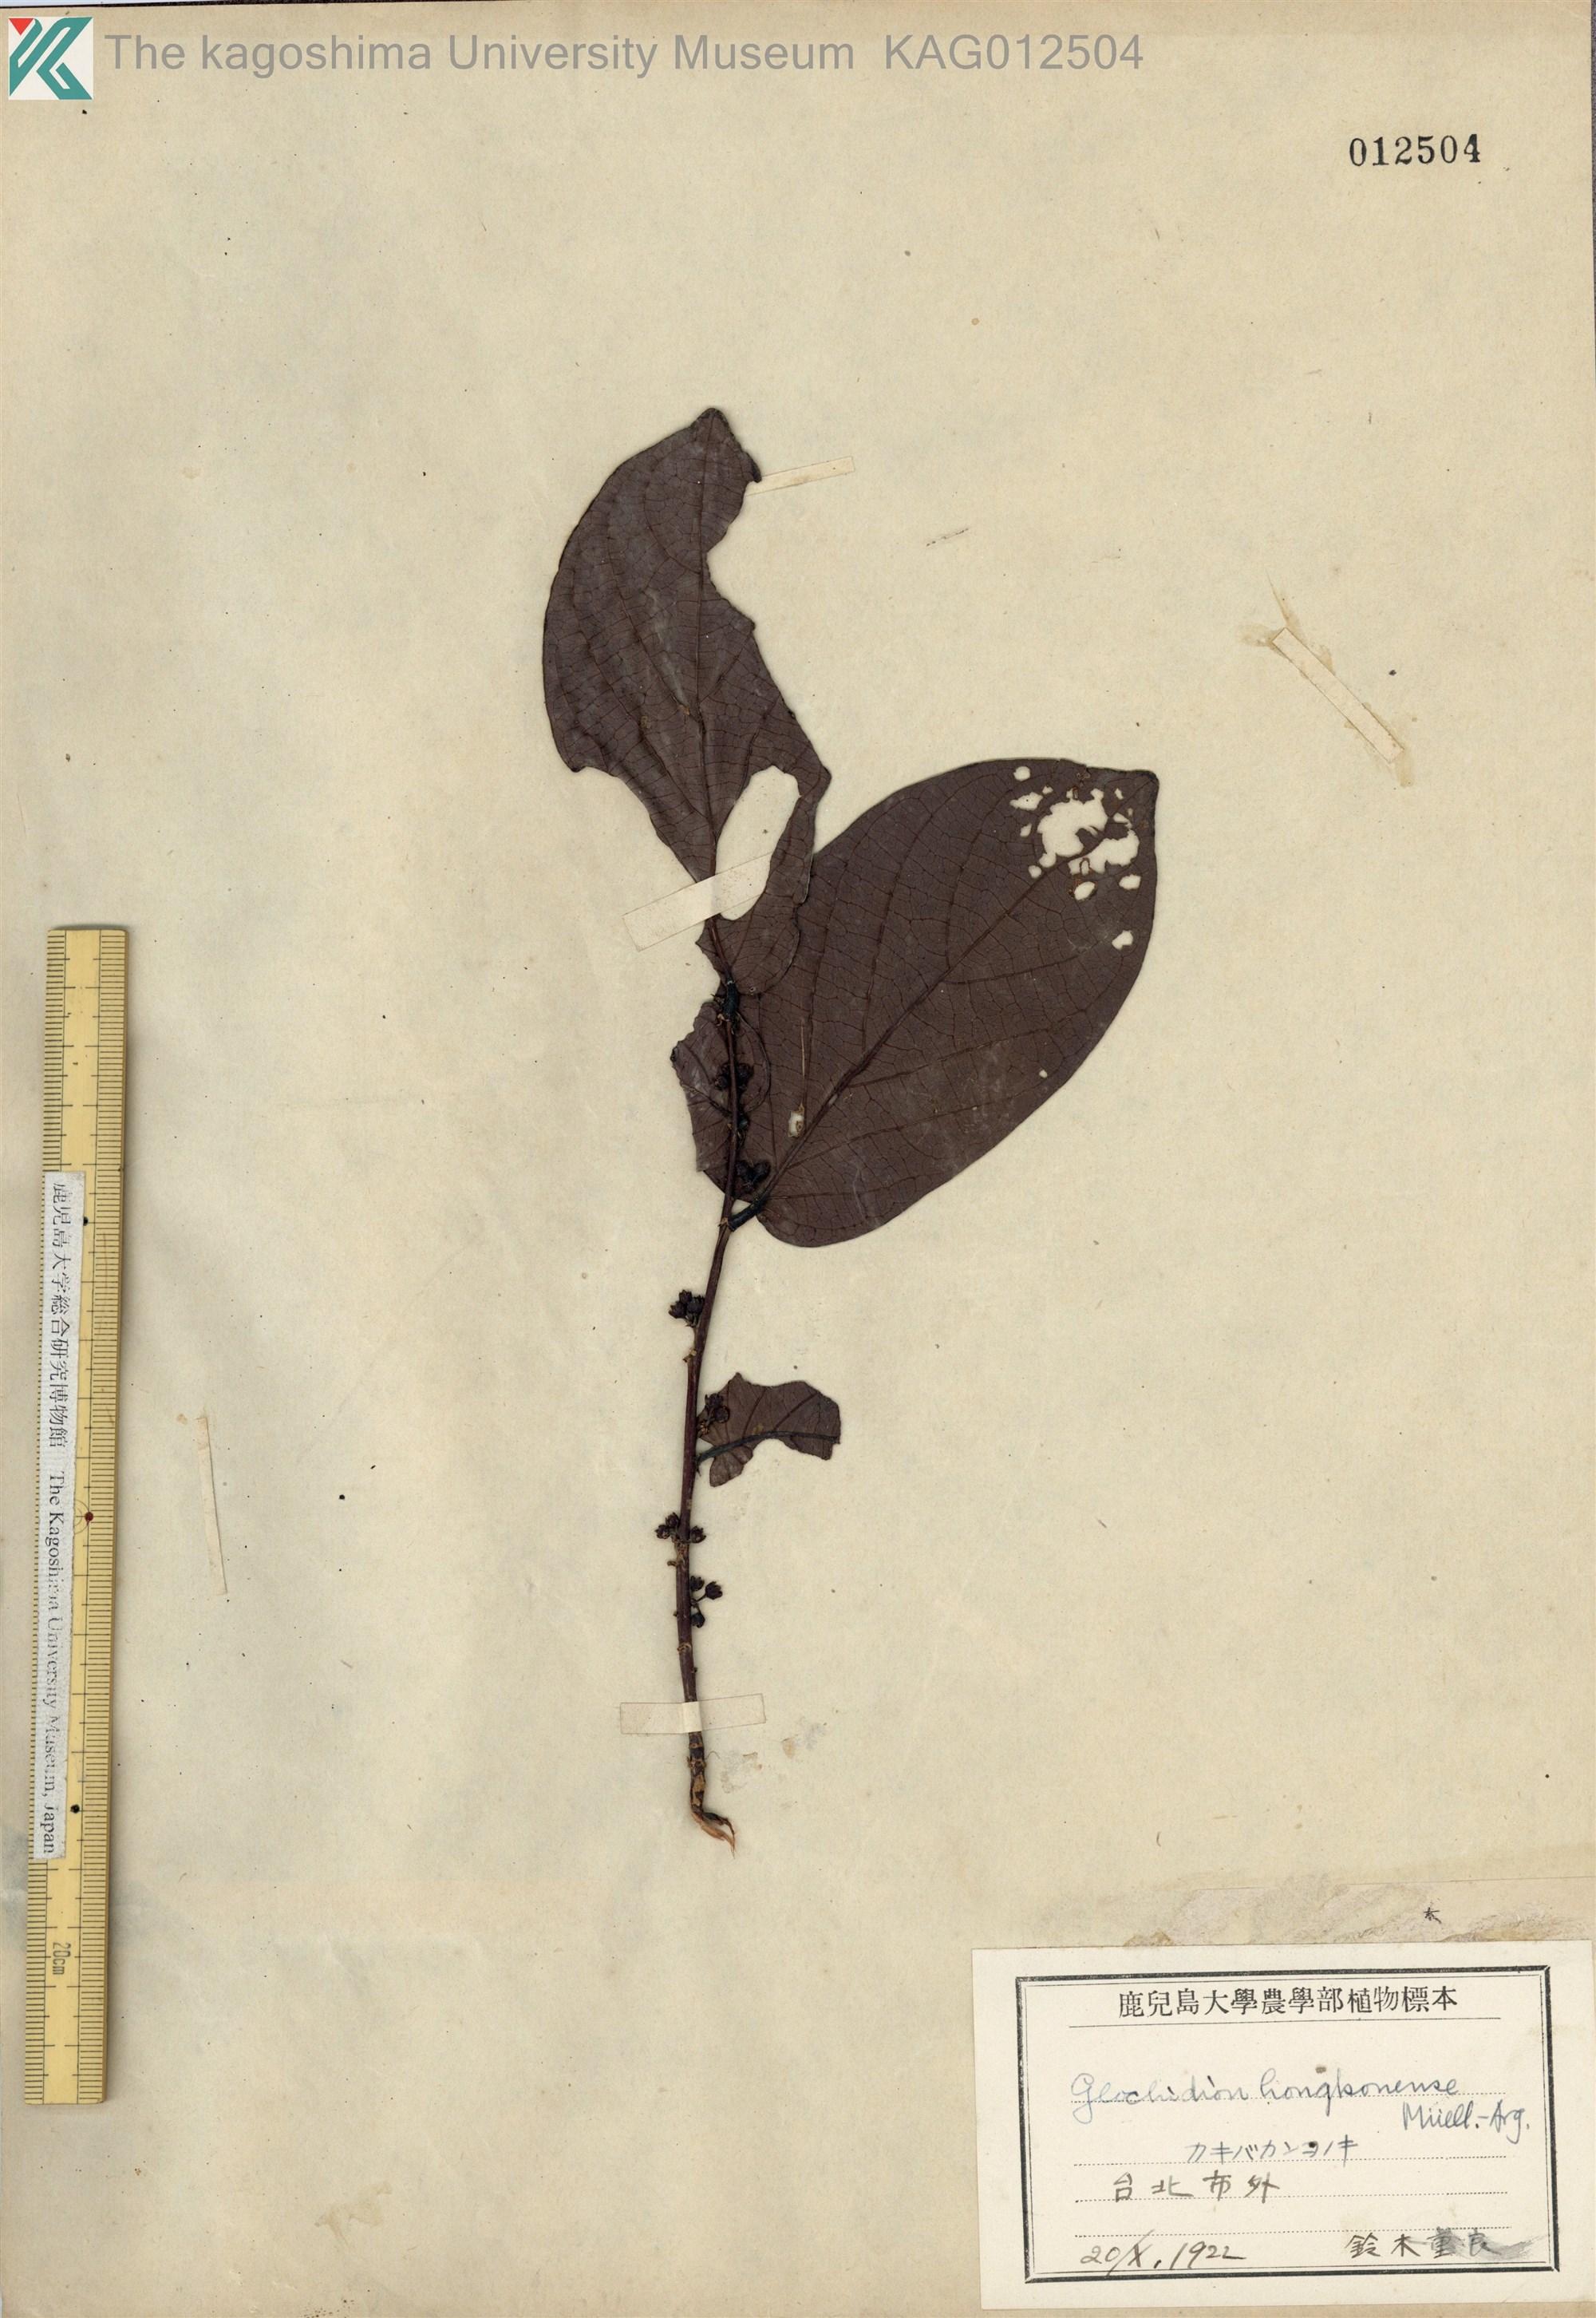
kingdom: Plantae
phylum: Tracheophyta
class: Magnoliopsida
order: Malpighiales
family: Phyllanthaceae
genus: Glochidion
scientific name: Glochidion zeylanicum
